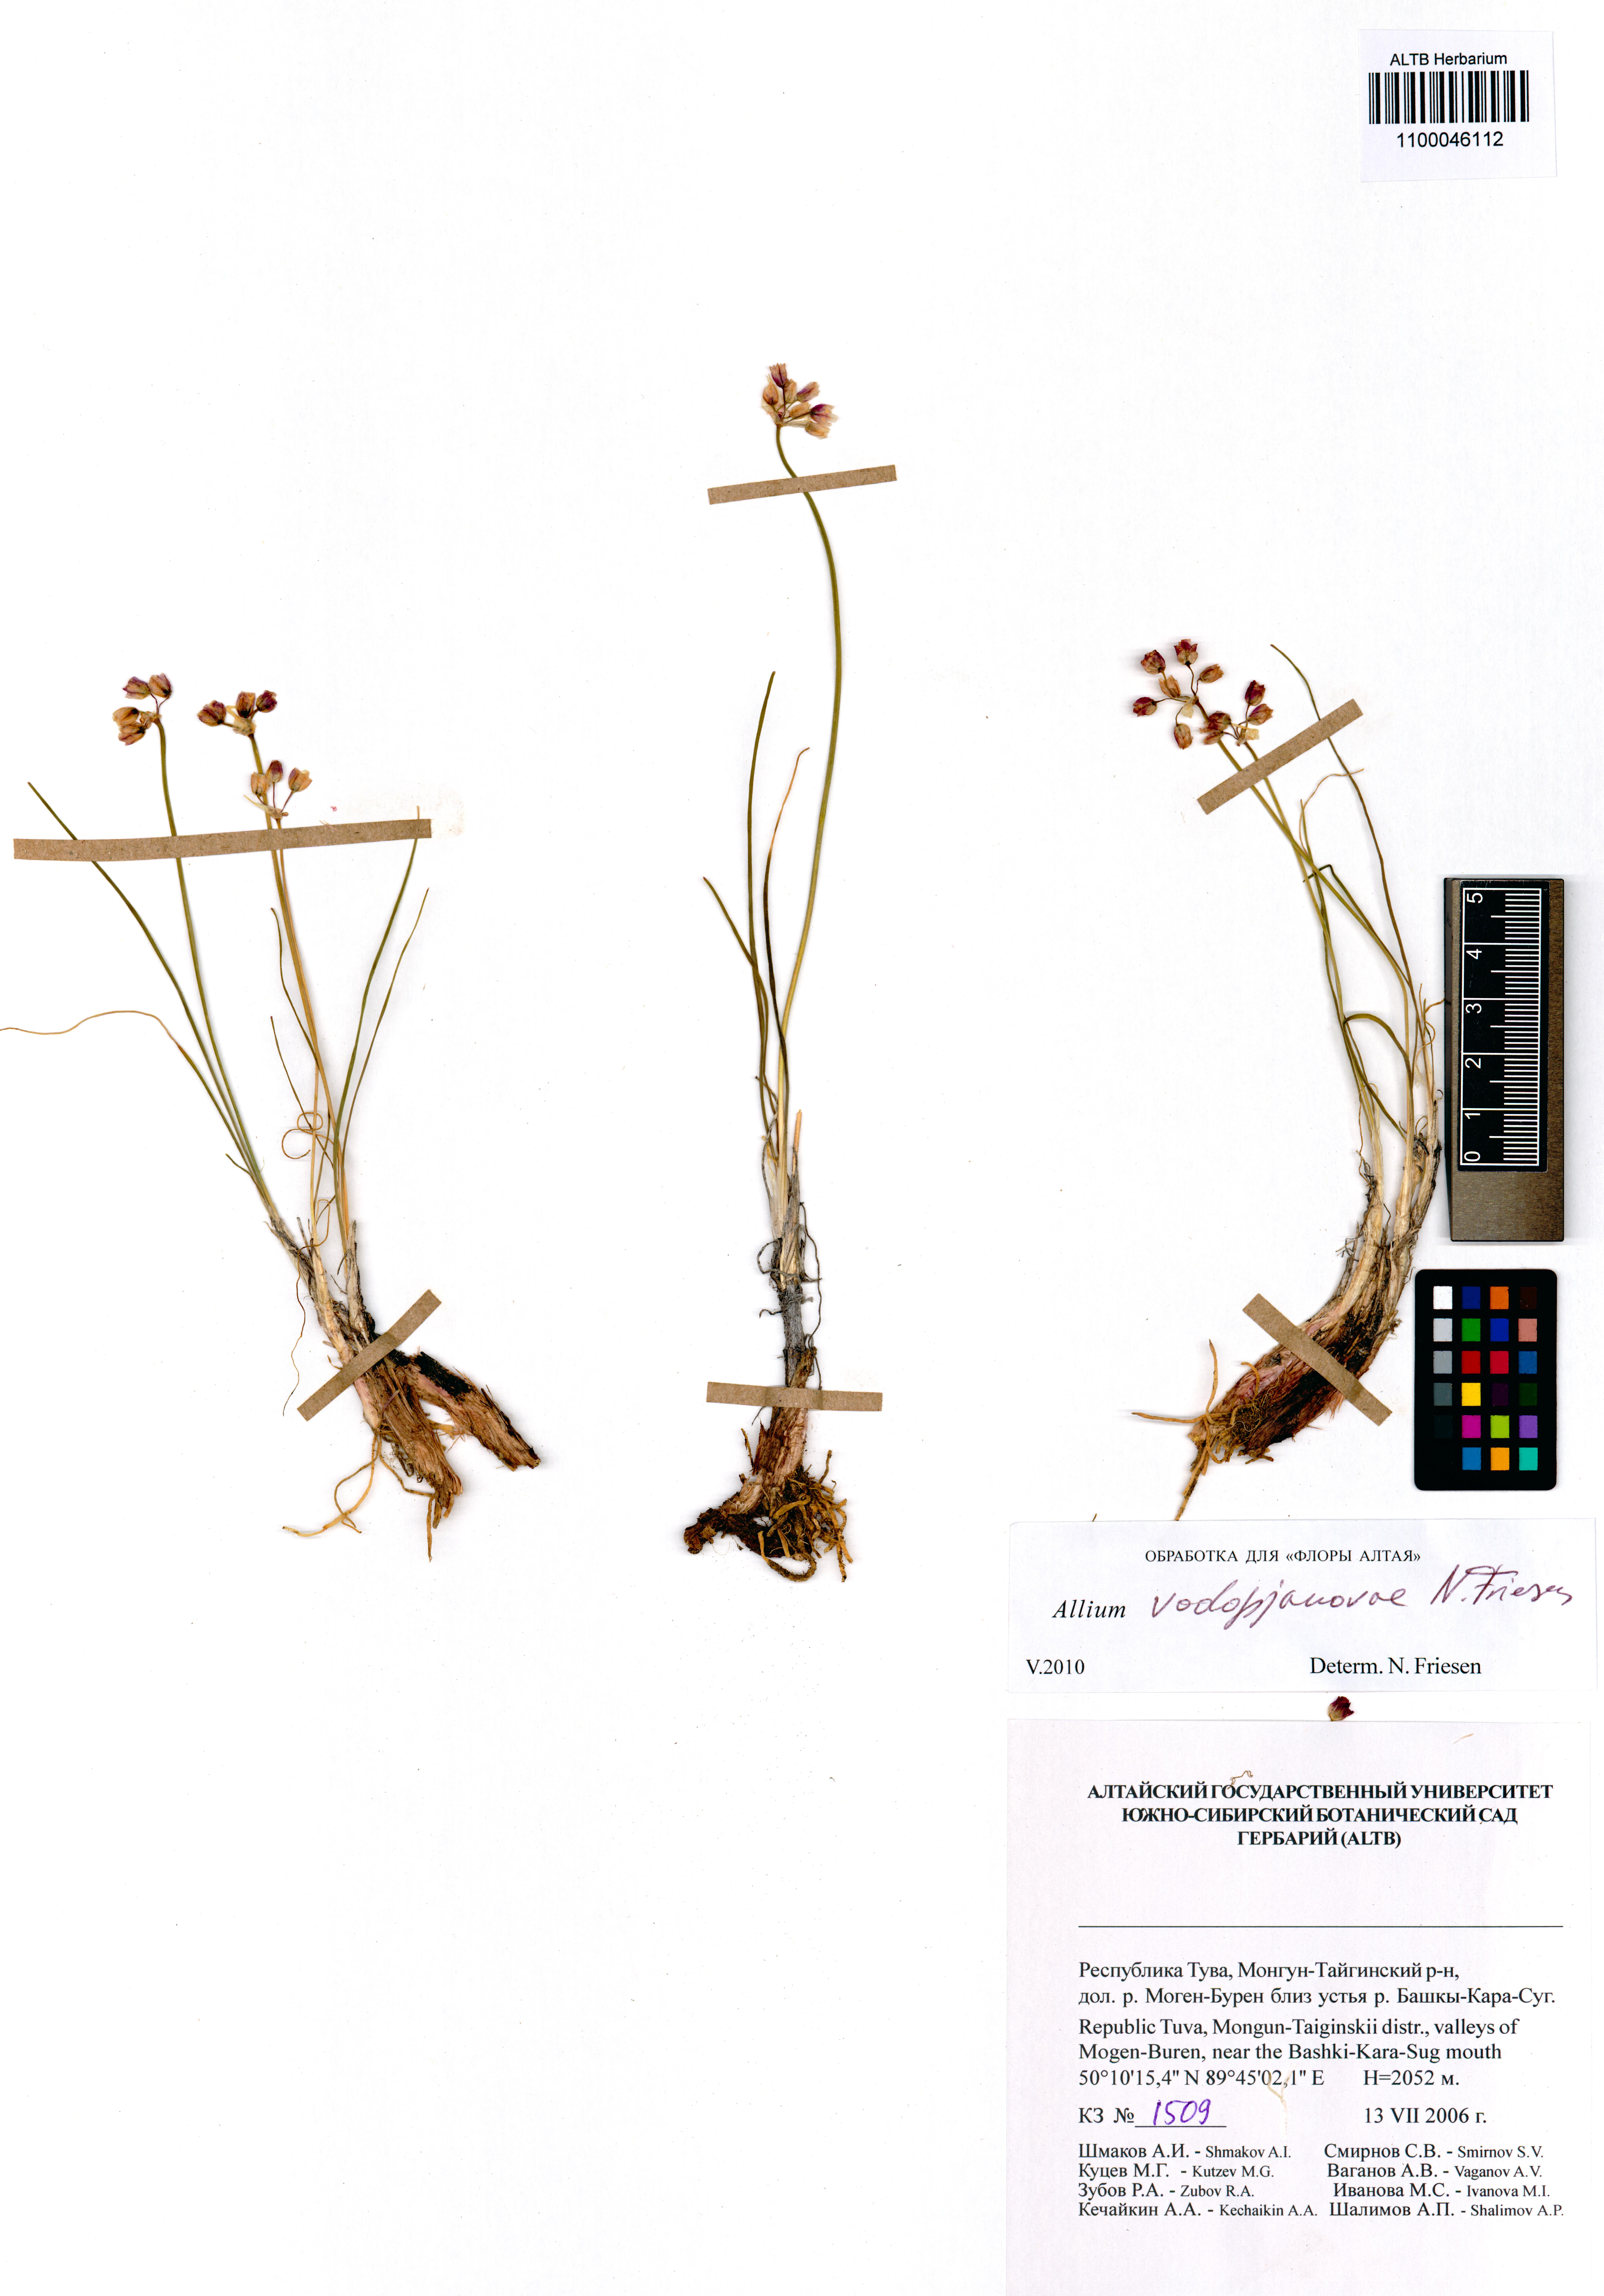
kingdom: Plantae
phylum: Tracheophyta
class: Liliopsida
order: Asparagales
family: Amaryllidaceae
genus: Allium
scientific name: Allium vodopjanovae
